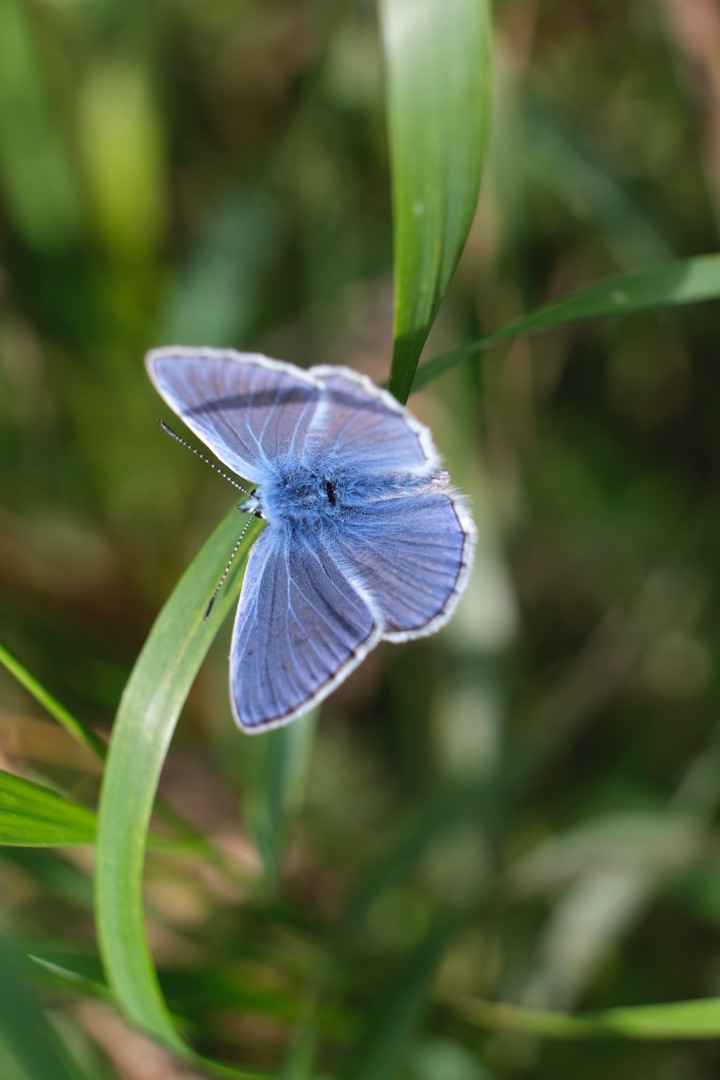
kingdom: Animalia
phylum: Arthropoda
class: Insecta
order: Lepidoptera
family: Lycaenidae
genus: Polyommatus
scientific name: Polyommatus icarus
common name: Almindelig blåfugl
